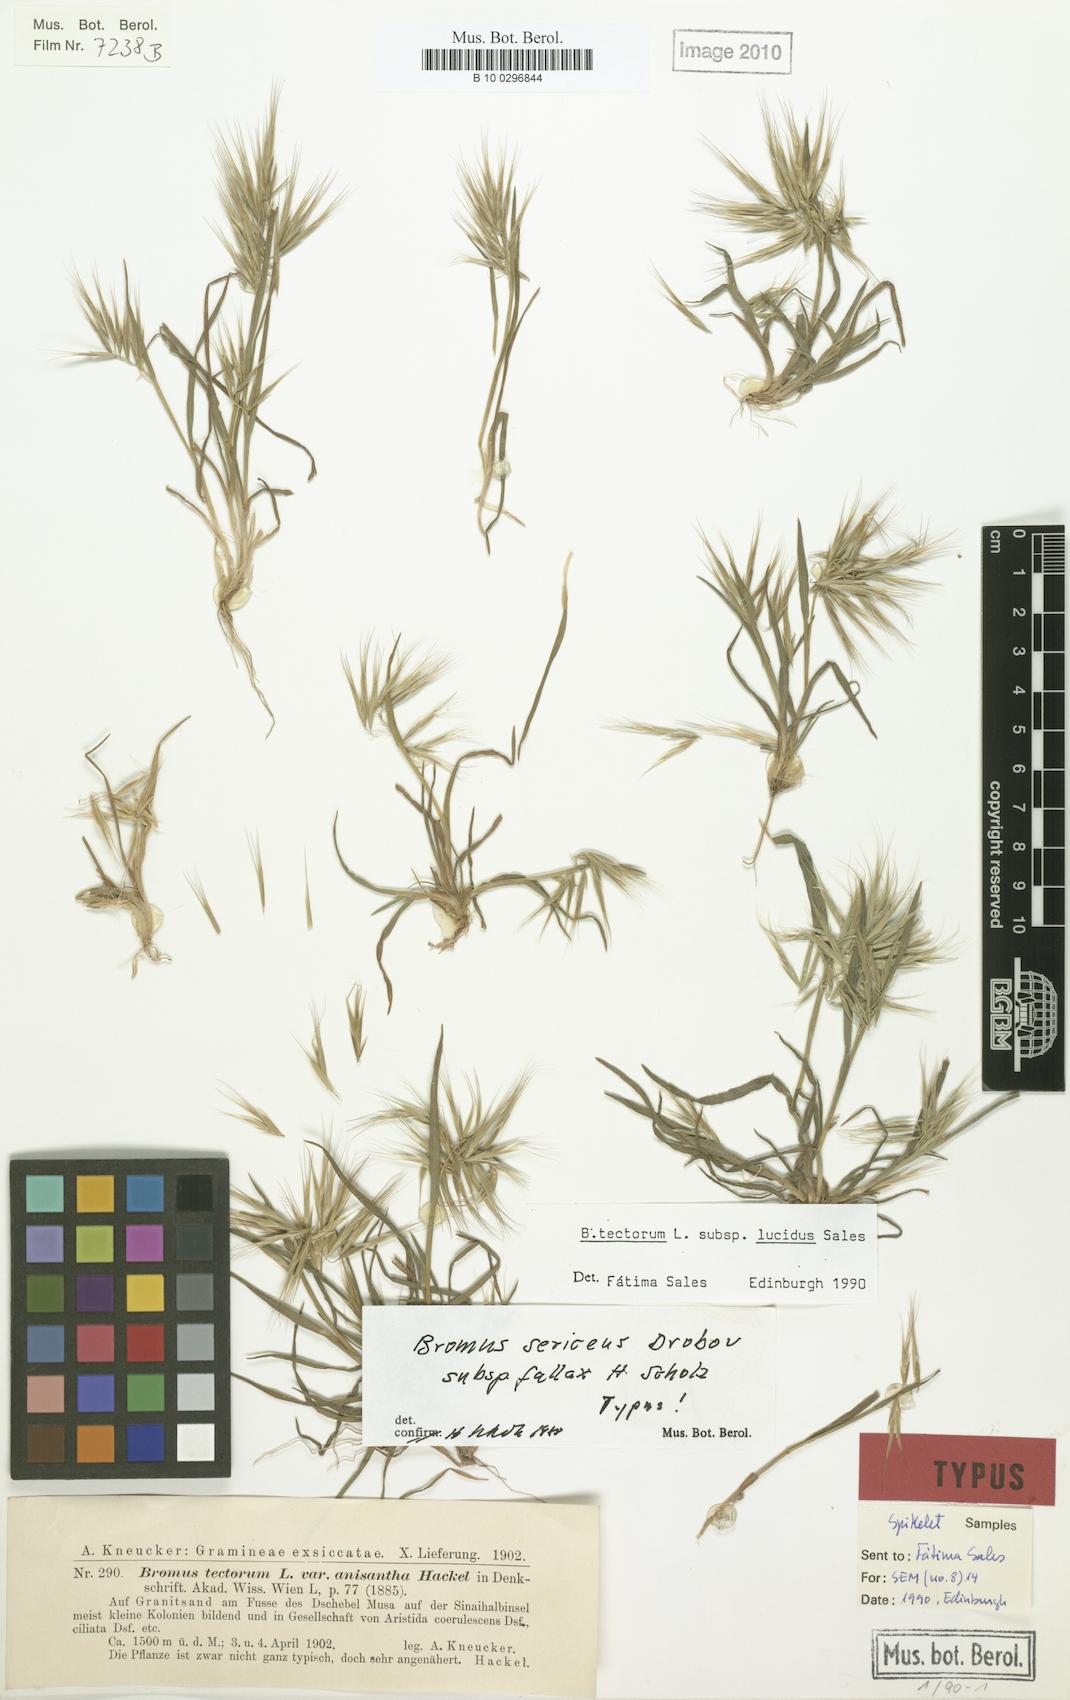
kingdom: Plantae
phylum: Tracheophyta
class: Liliopsida
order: Poales
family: Poaceae
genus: Bromus
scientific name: Bromus moeszii
